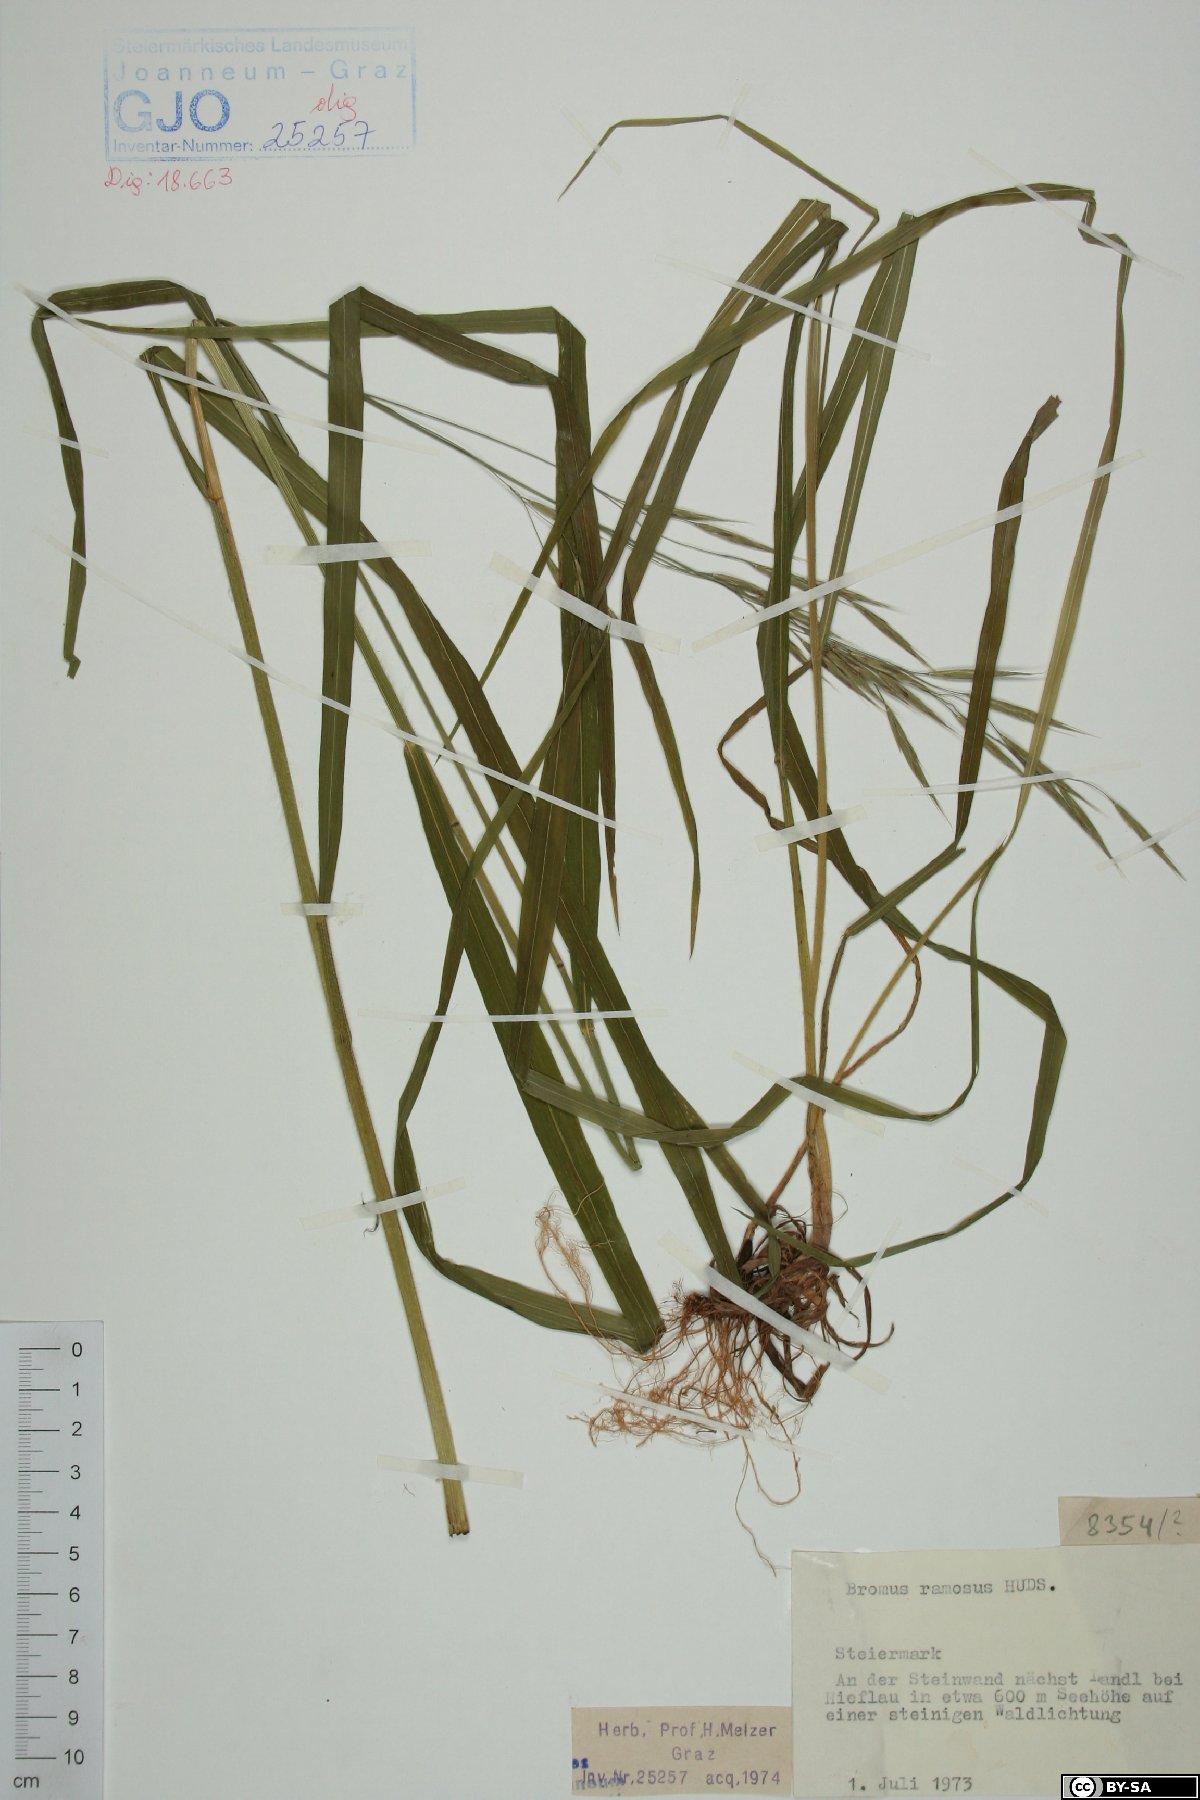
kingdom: Plantae
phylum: Tracheophyta
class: Liliopsida
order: Poales
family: Poaceae
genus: Bromus
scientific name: Bromus ramosus
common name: Hairy brome
